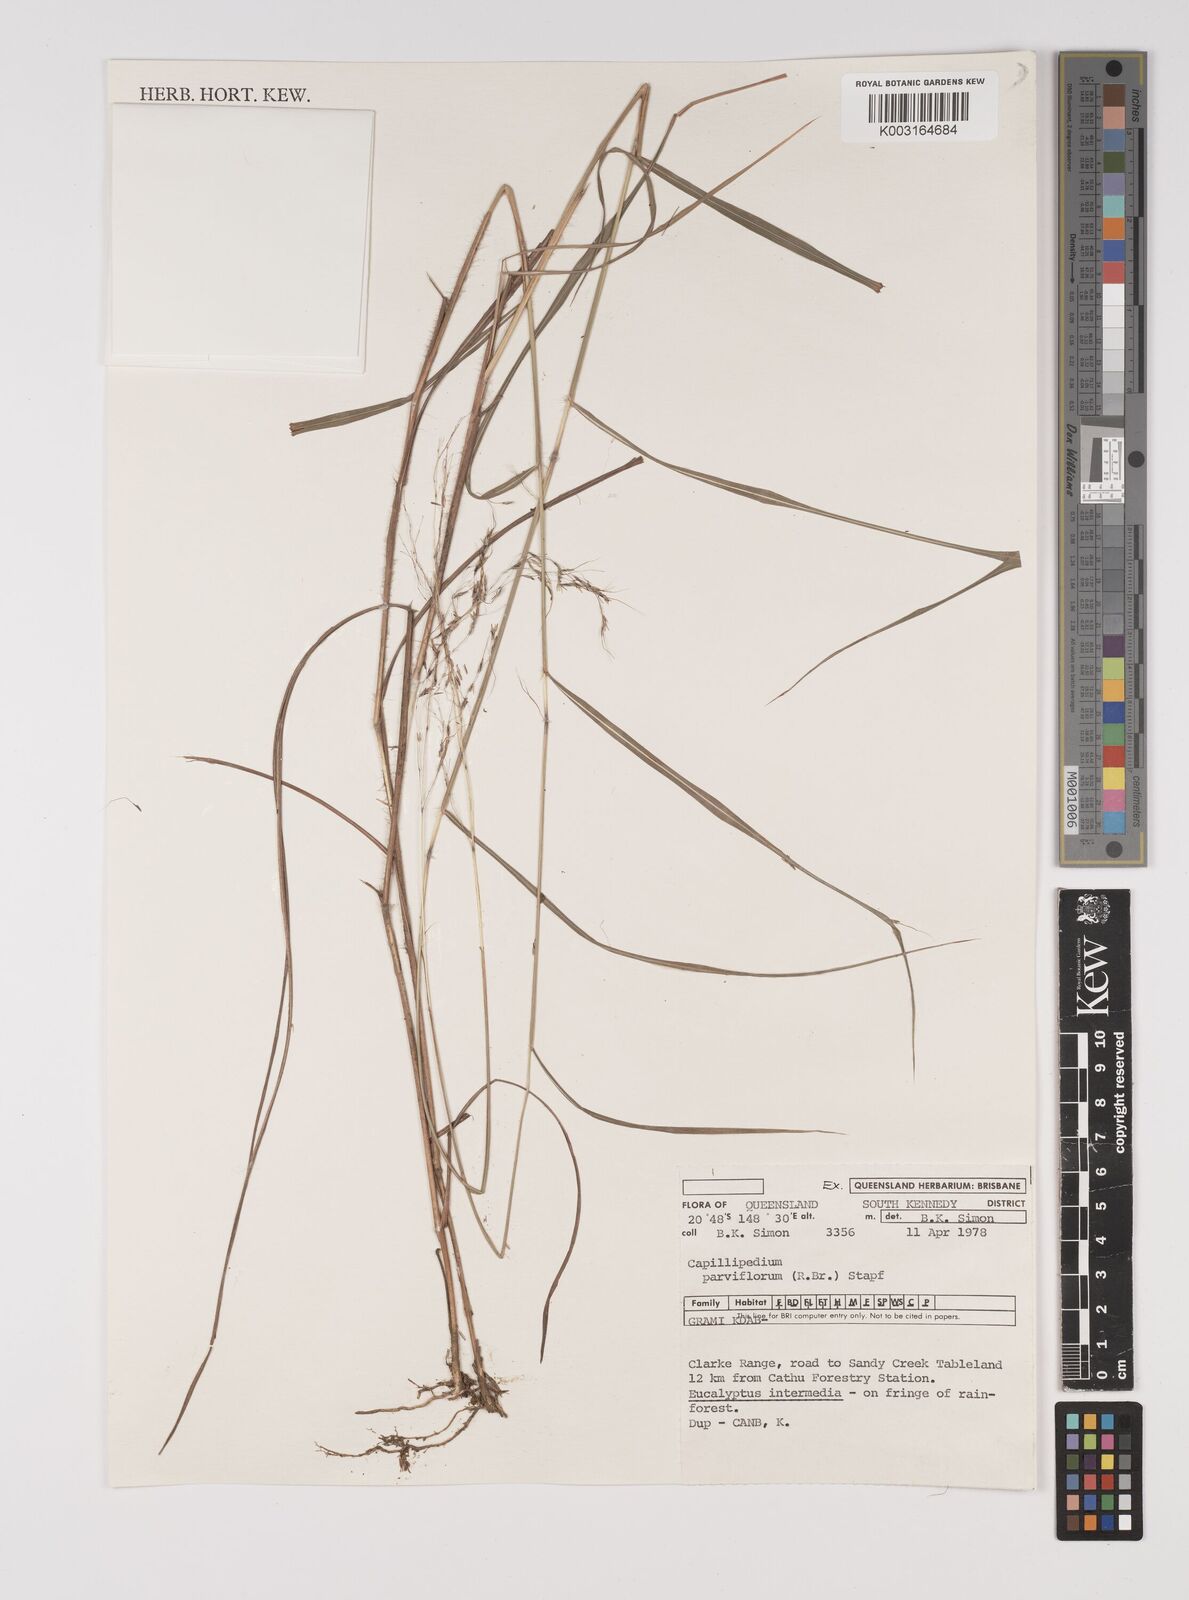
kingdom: Plantae
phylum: Tracheophyta
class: Liliopsida
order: Poales
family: Poaceae
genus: Capillipedium
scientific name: Capillipedium parviflorum
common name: Golden-beard
